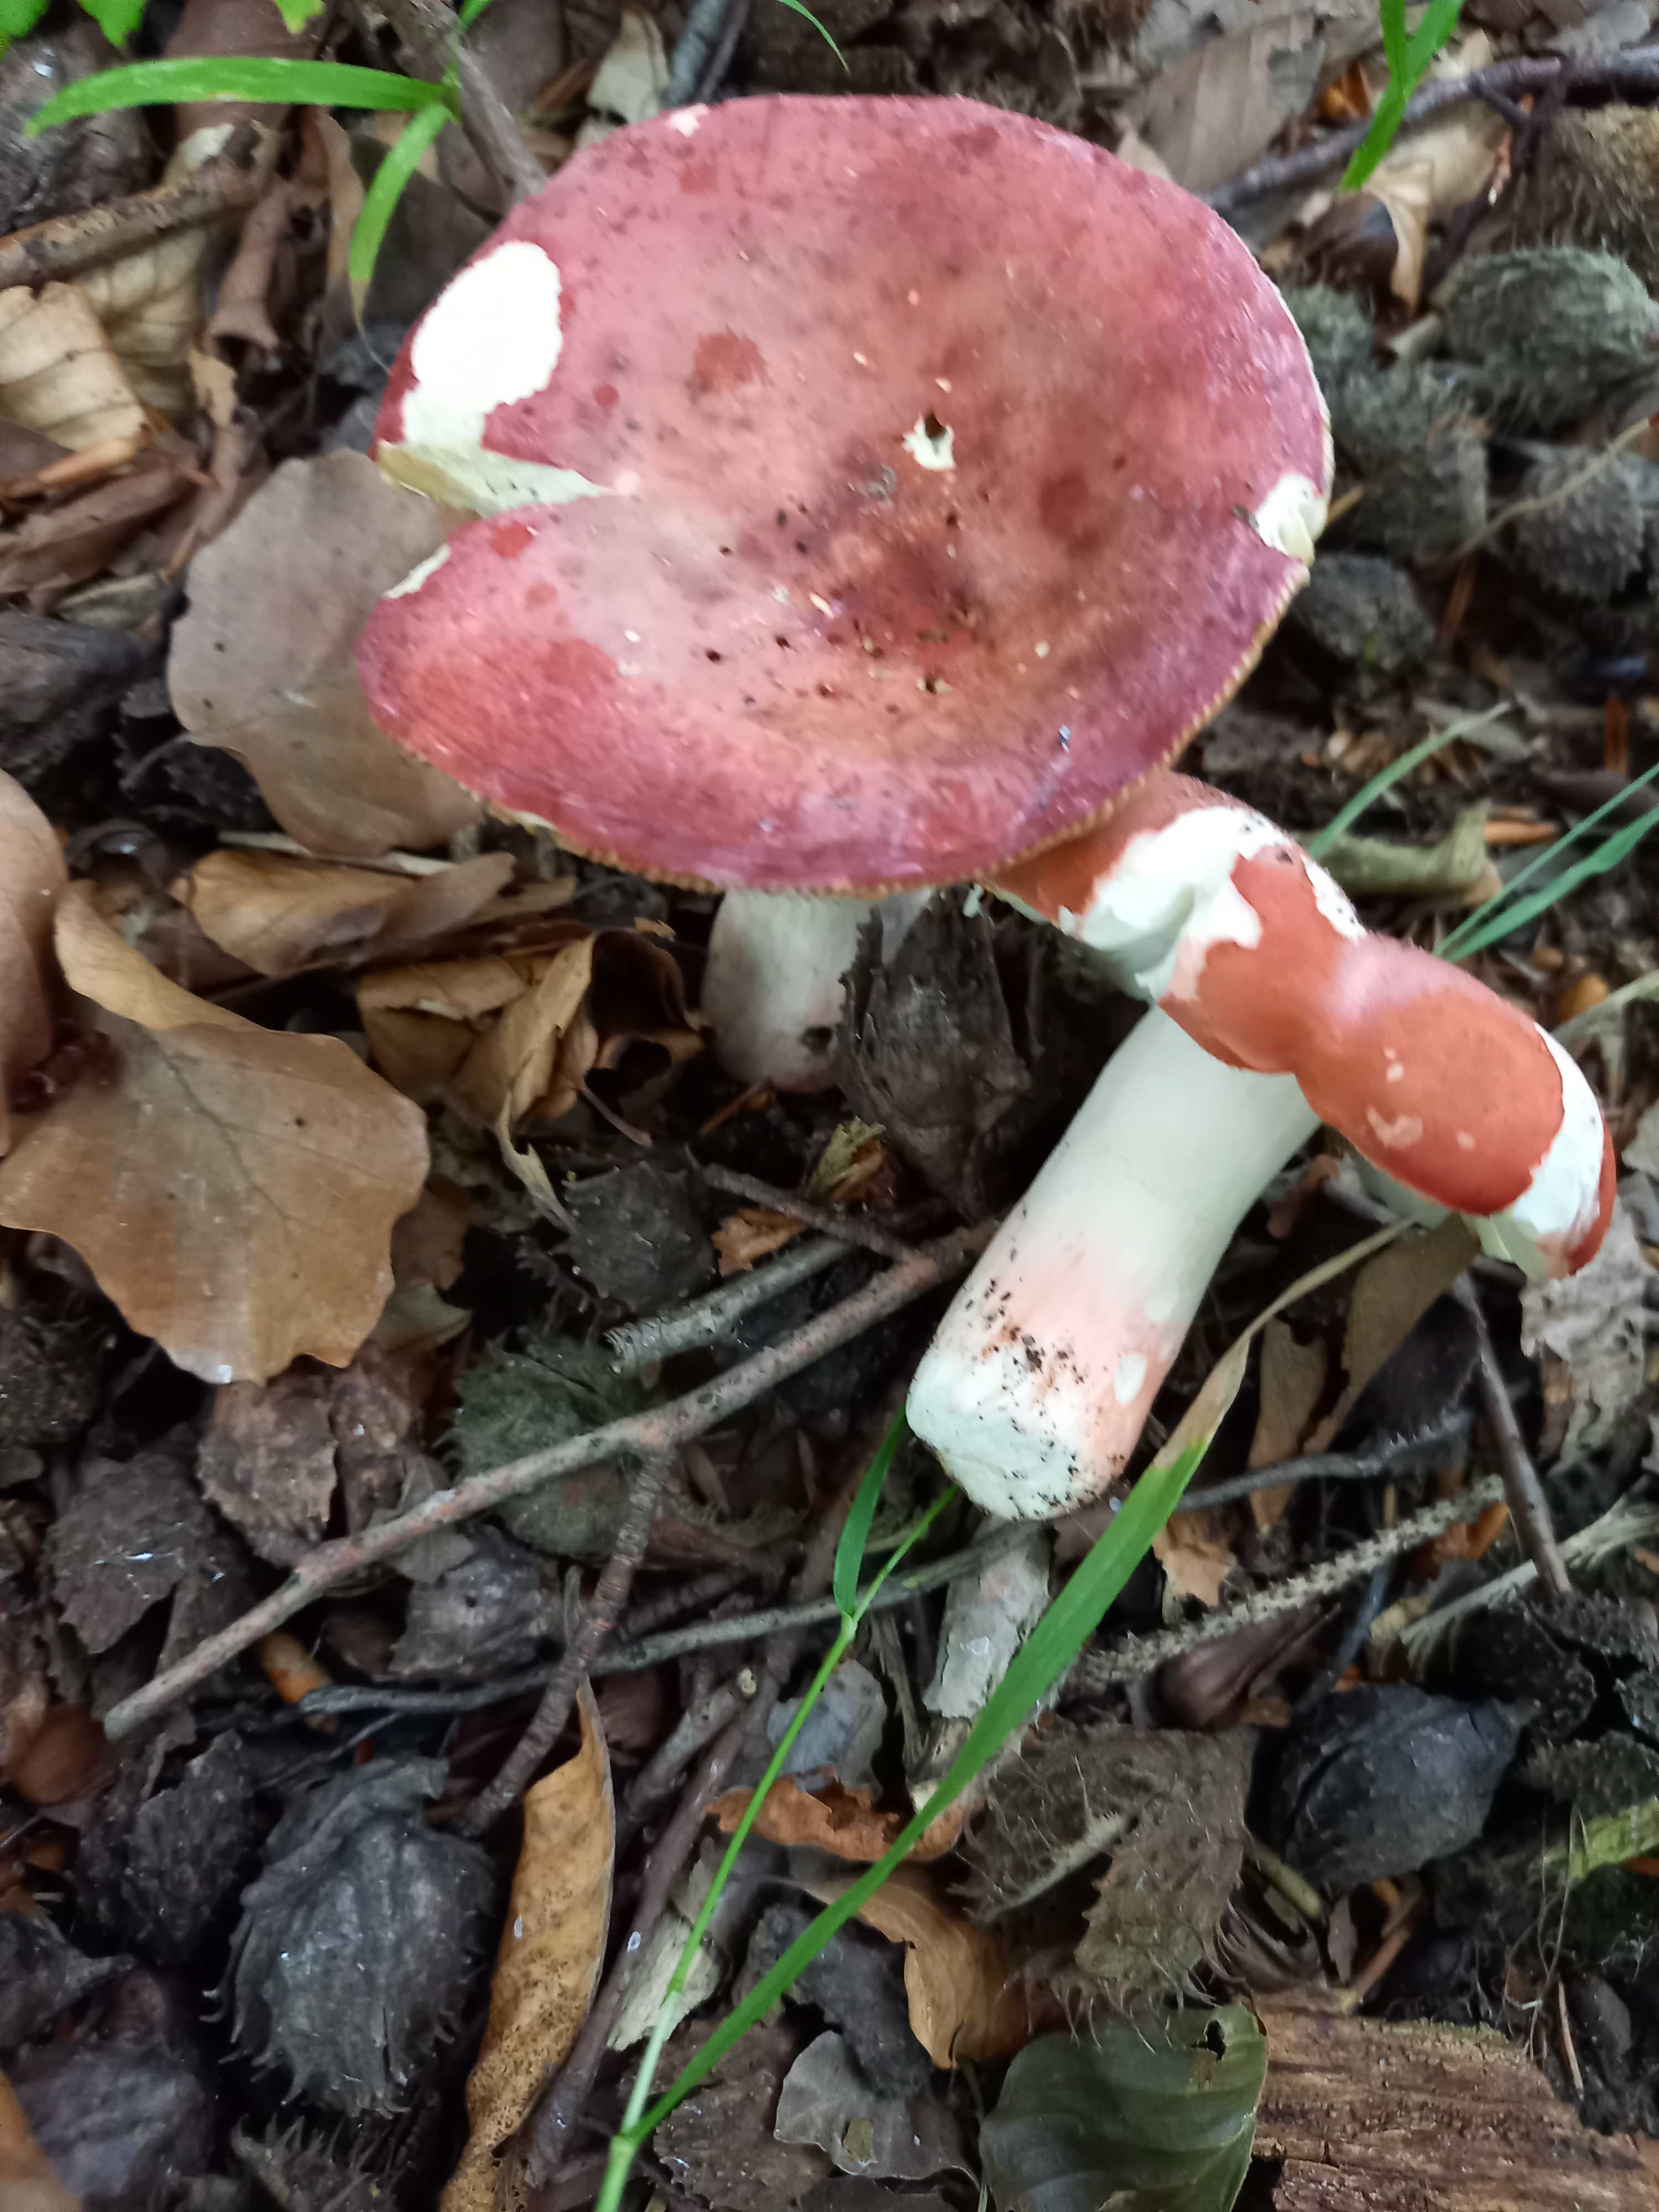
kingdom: Fungi
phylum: Basidiomycota
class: Agaricomycetes
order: Russulales
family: Russulaceae
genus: Russula
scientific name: Russula rosea
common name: fastkødet skørhat
